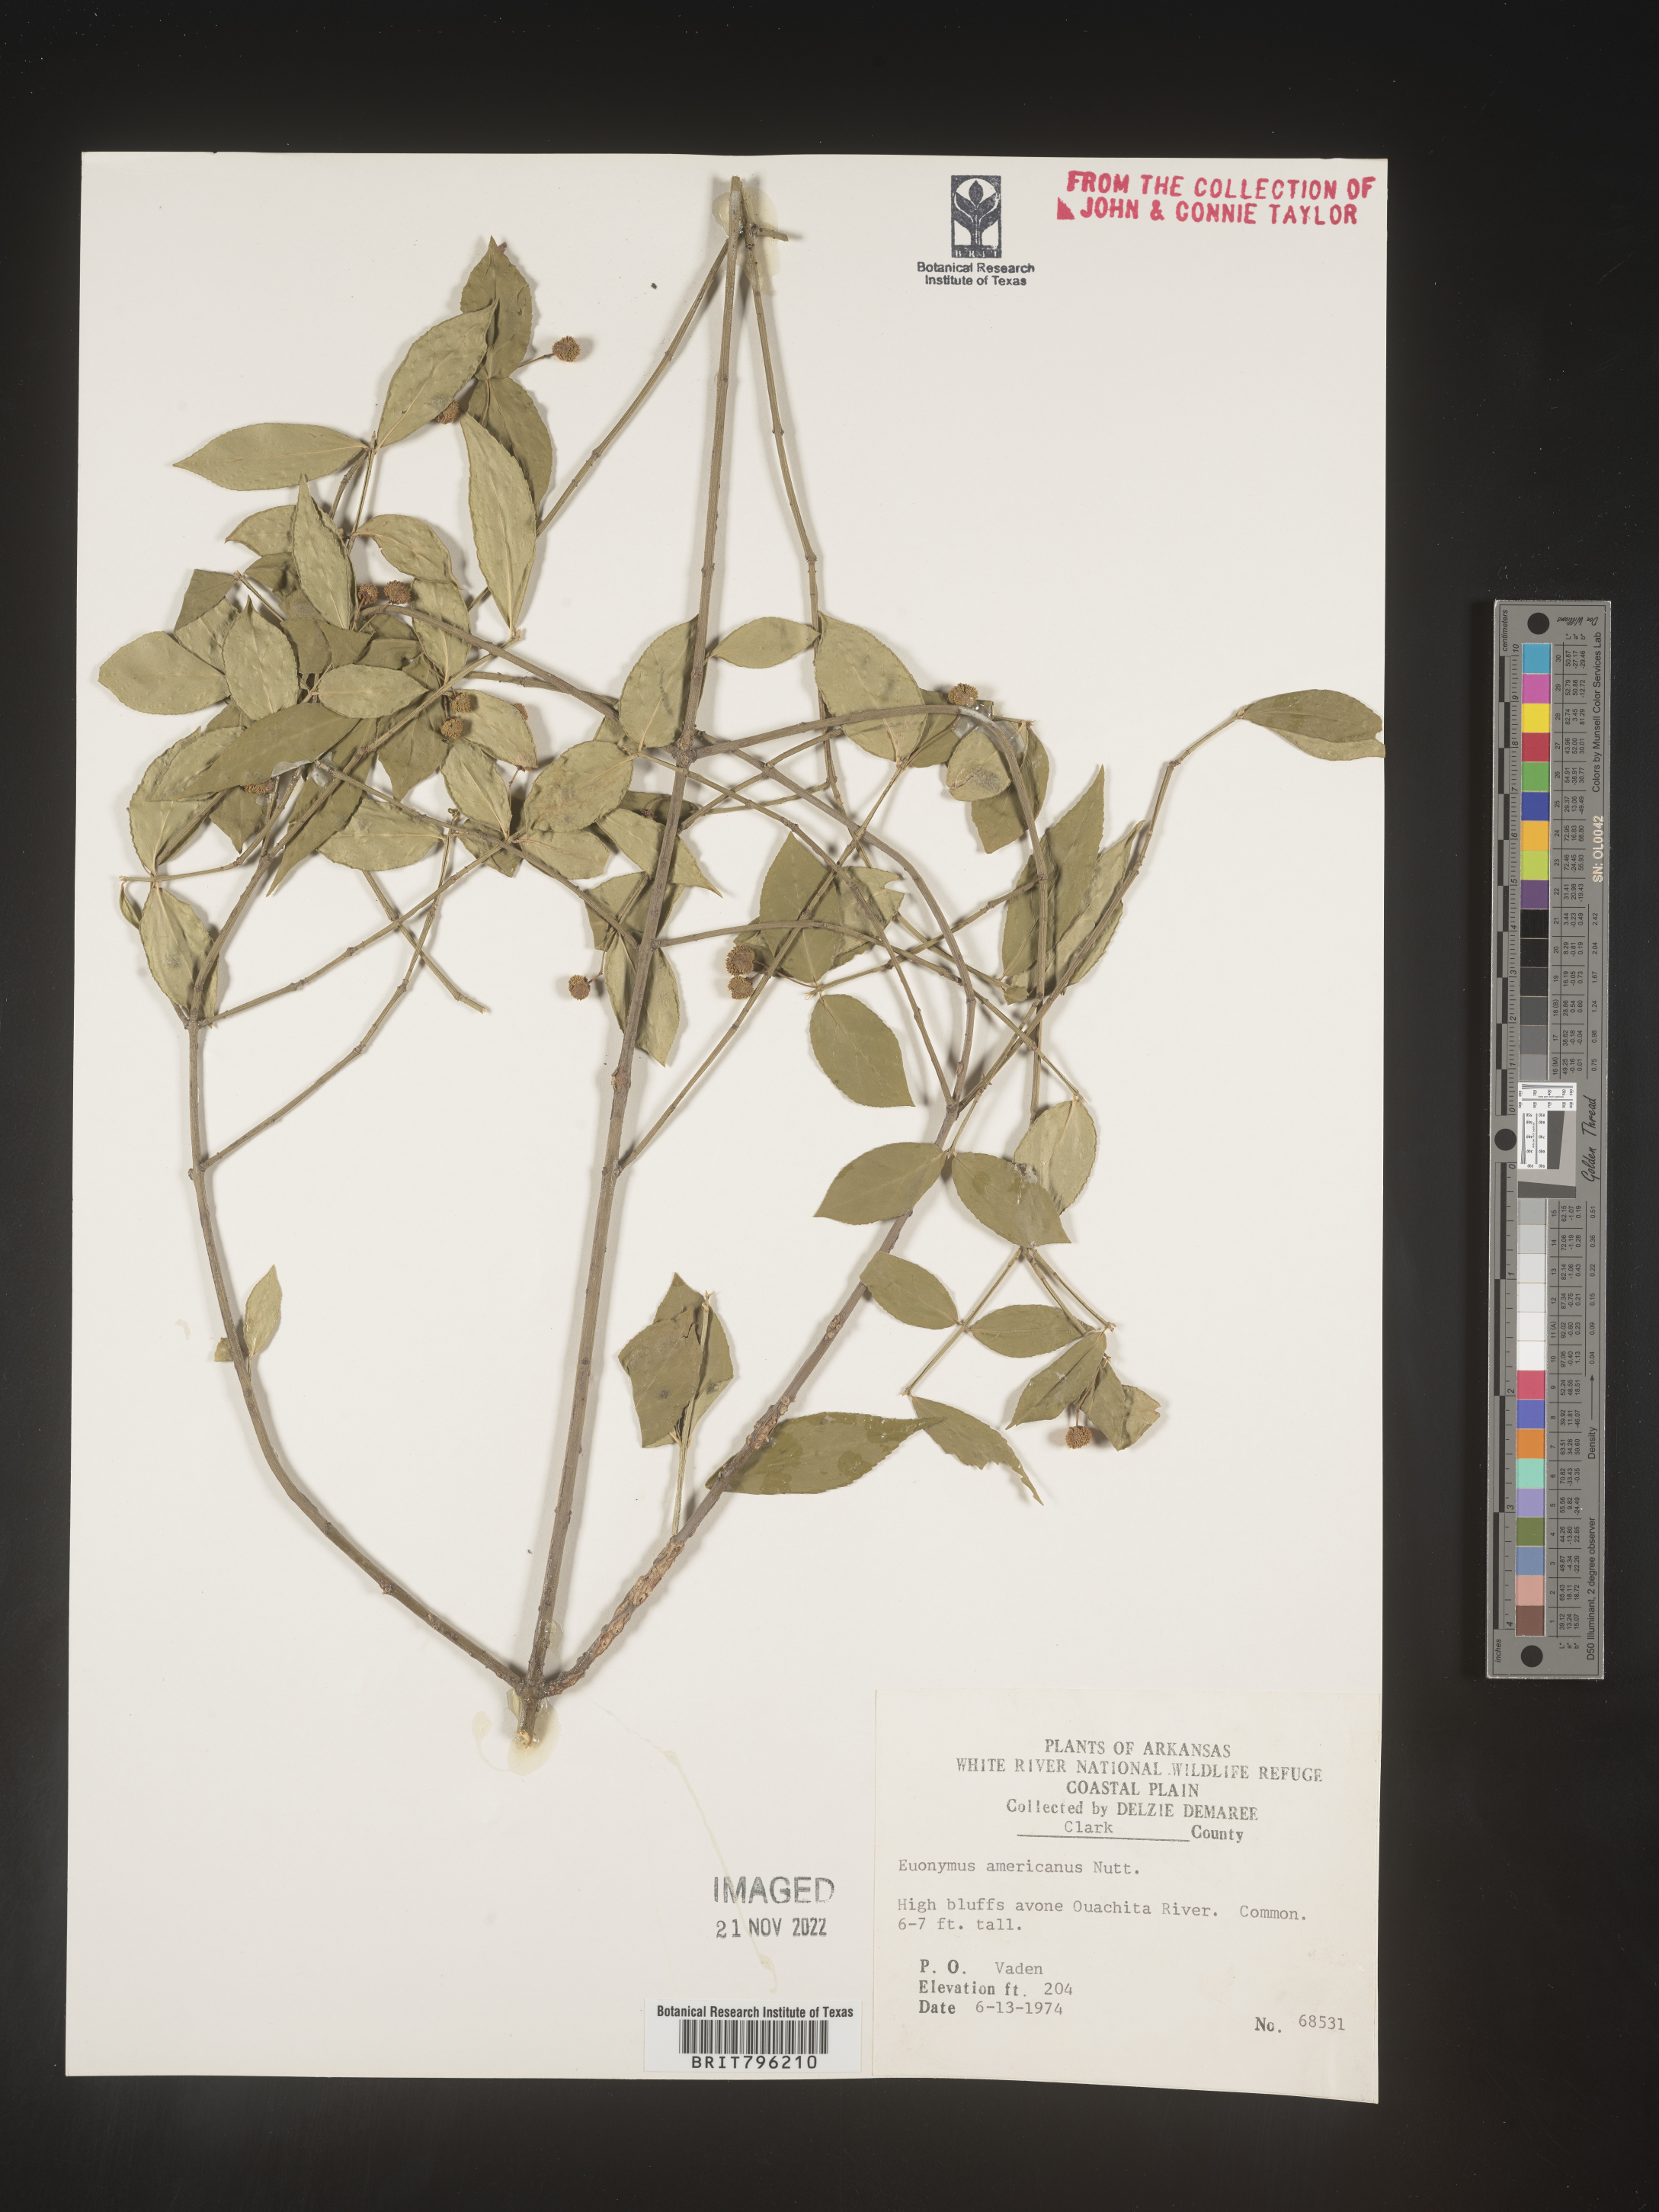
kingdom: Plantae
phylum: Tracheophyta
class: Magnoliopsida
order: Celastrales
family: Celastraceae
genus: Euonymus
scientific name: Euonymus americanus
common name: Bursting-heart
